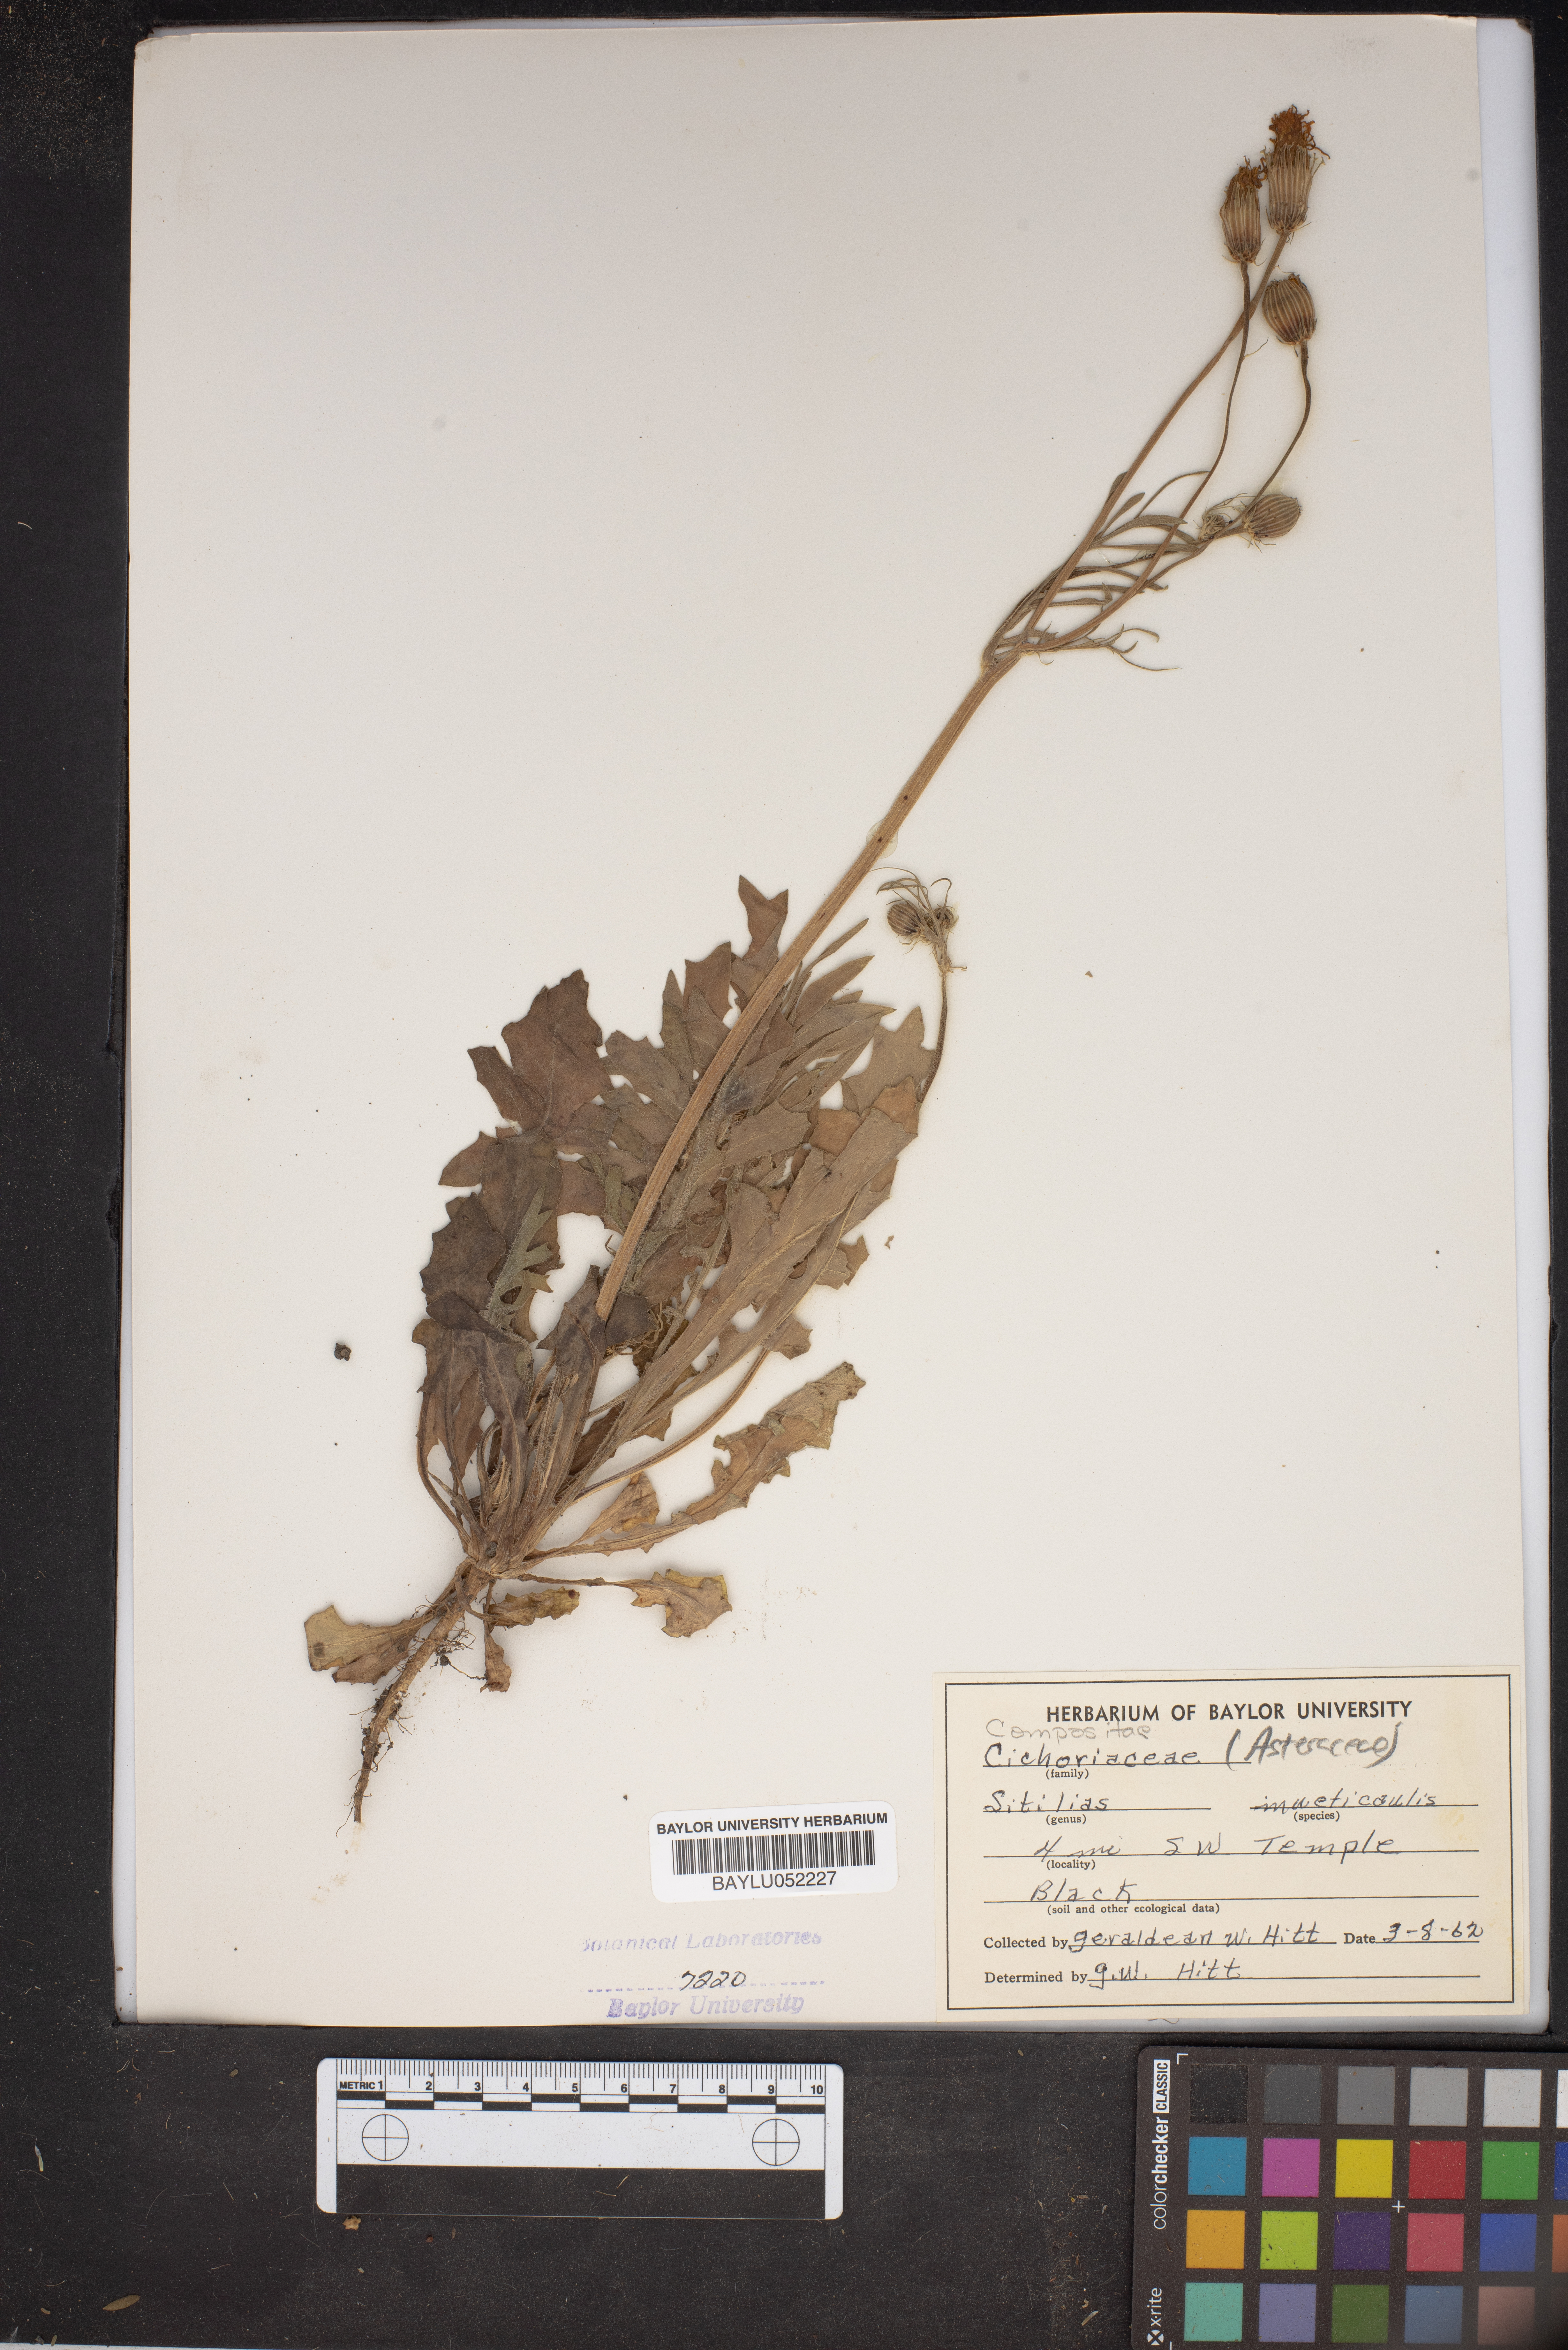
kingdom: Plantae
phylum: Tracheophyta
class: Magnoliopsida
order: Asterales
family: Asteraceae
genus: Pyrrhopappus
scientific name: Pyrrhopappus pauciflorus
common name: Texas false dandelion
